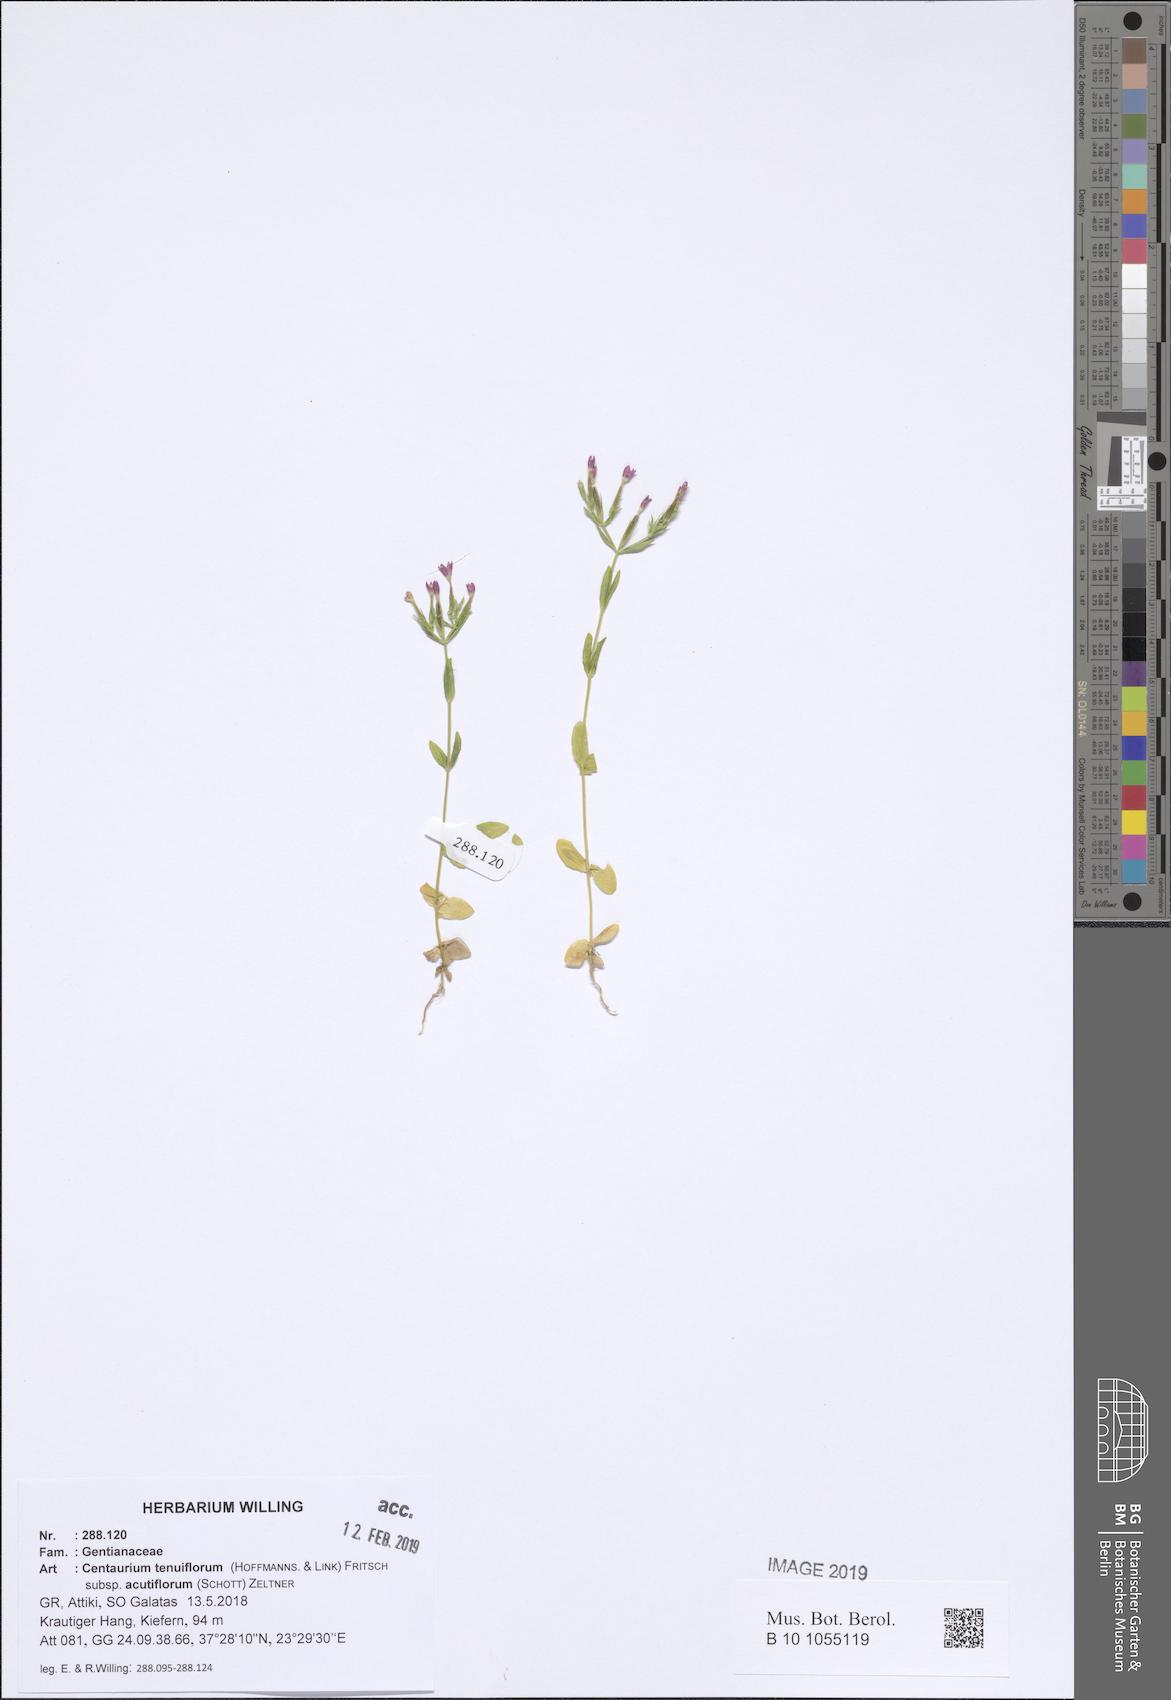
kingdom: Plantae
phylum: Tracheophyta
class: Magnoliopsida
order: Gentianales
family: Gentianaceae
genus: Centaurium
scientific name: Centaurium tenuiflorum
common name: Slender centaury
